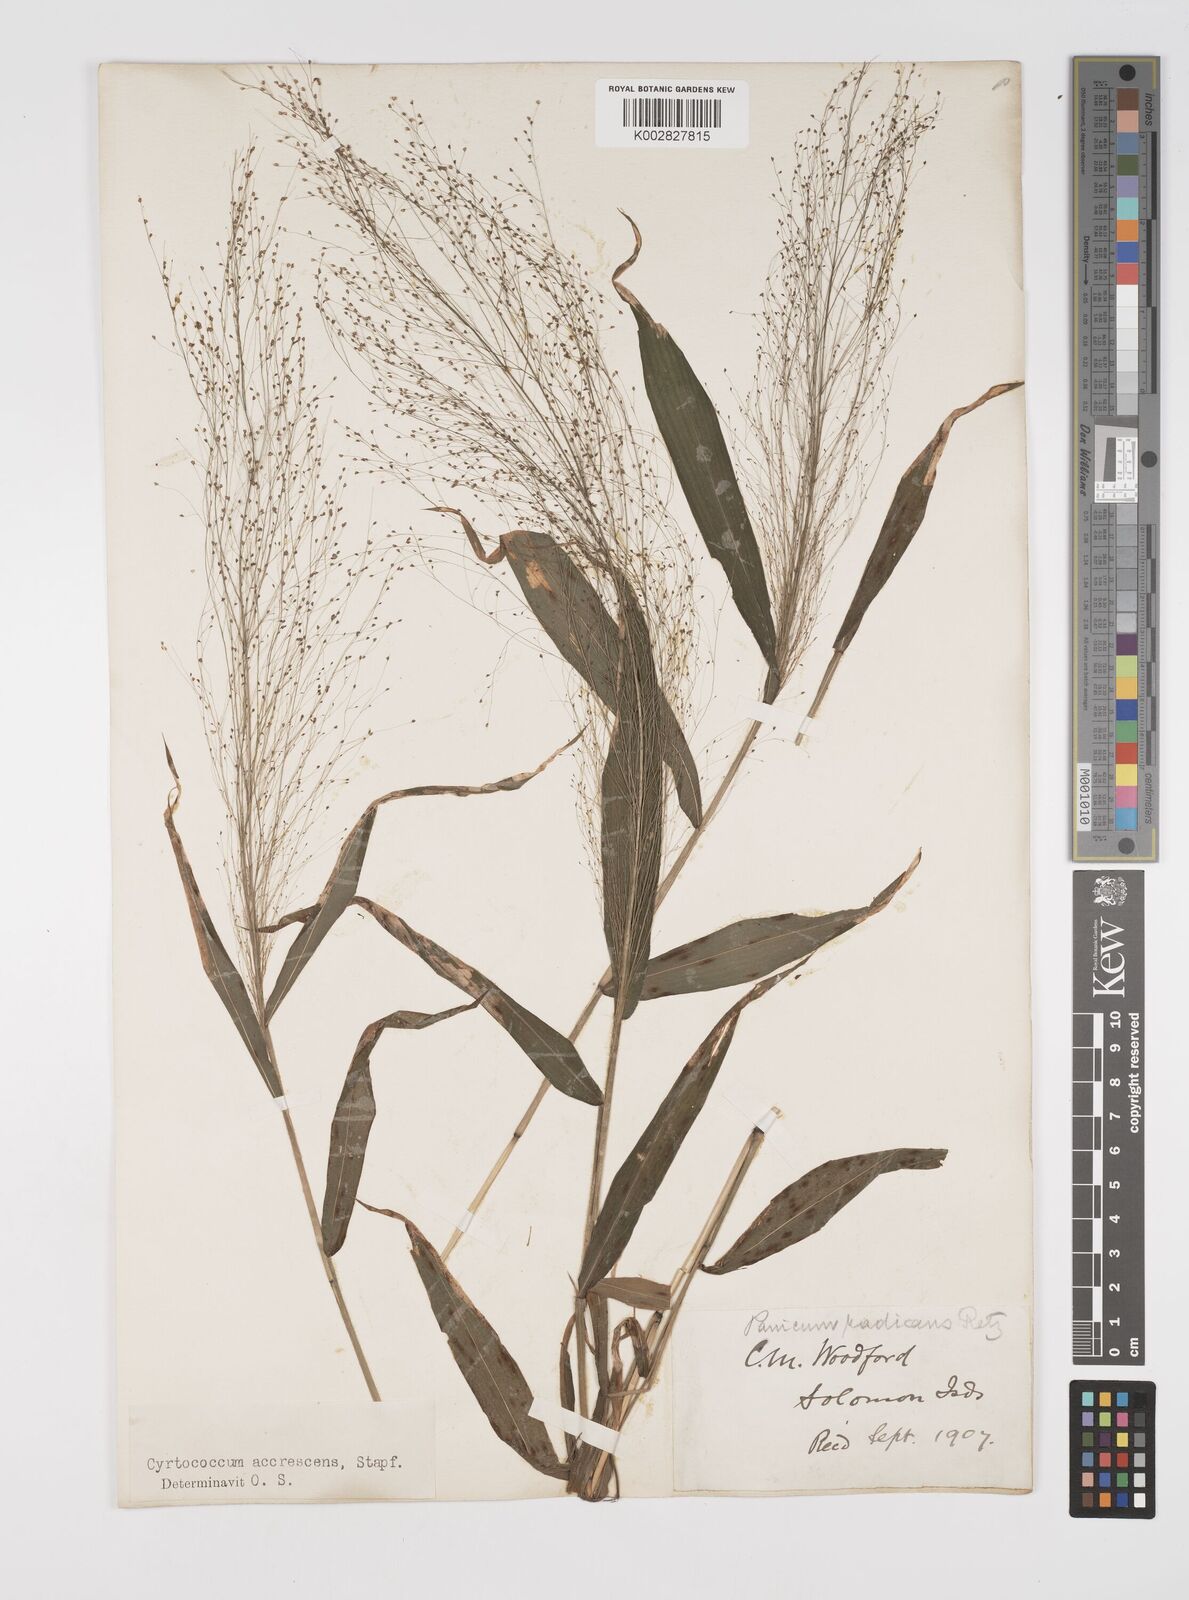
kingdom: Plantae
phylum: Tracheophyta
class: Liliopsida
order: Poales
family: Poaceae
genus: Cyrtococcum
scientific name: Cyrtococcum accrescens
